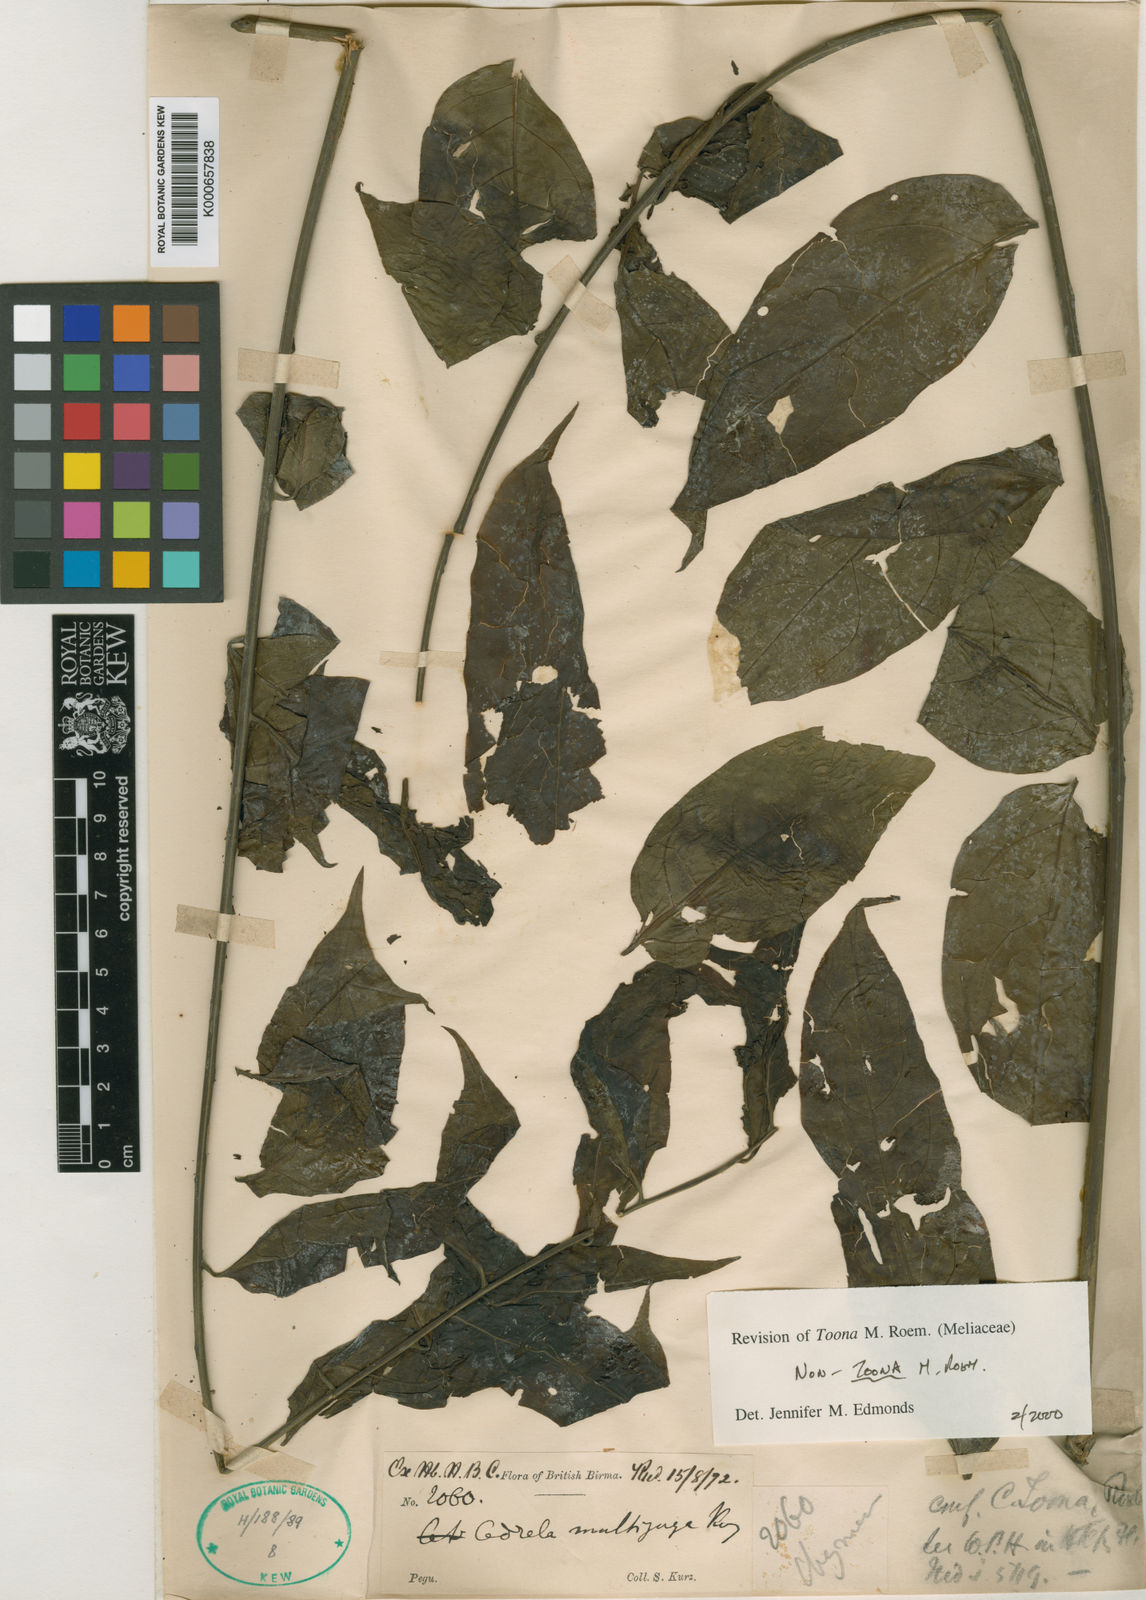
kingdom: Plantae
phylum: Tracheophyta
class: Magnoliopsida
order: Sapindales
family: Meliaceae
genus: Cedrela
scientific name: Cedrela
